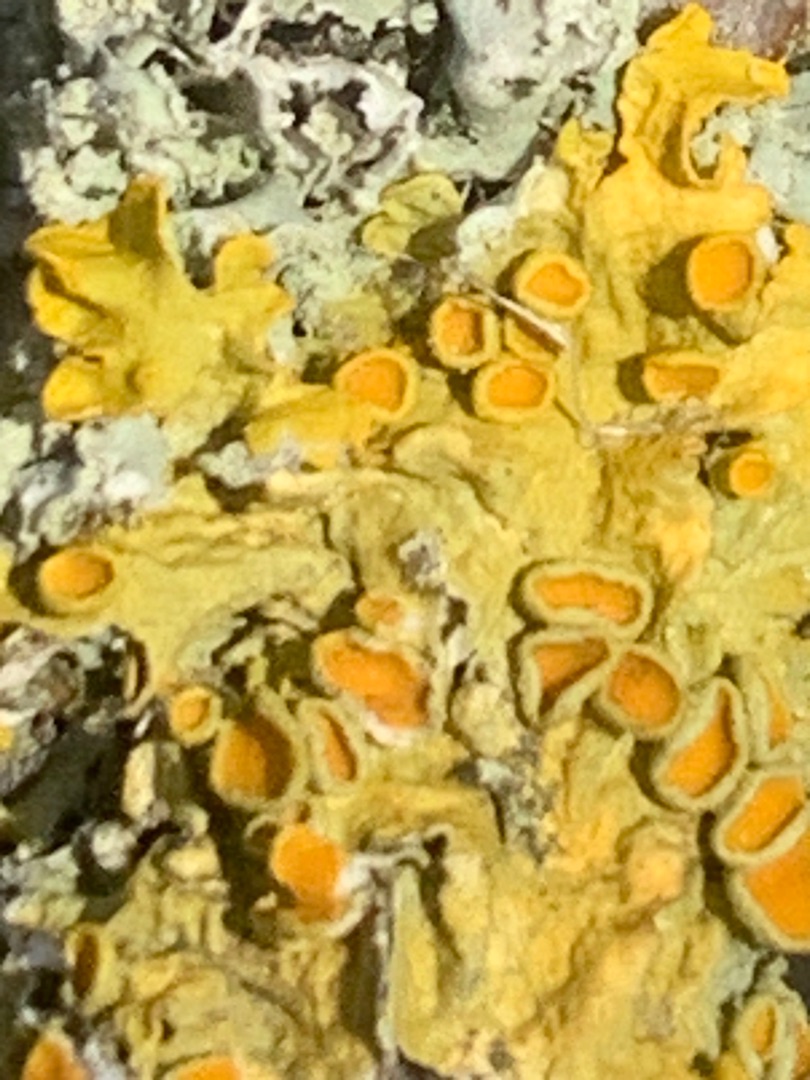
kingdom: Fungi
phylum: Ascomycota
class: Lecanoromycetes
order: Teloschistales
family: Teloschistaceae
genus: Xanthoria
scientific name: Xanthoria parietina
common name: Almindelig væggelav
